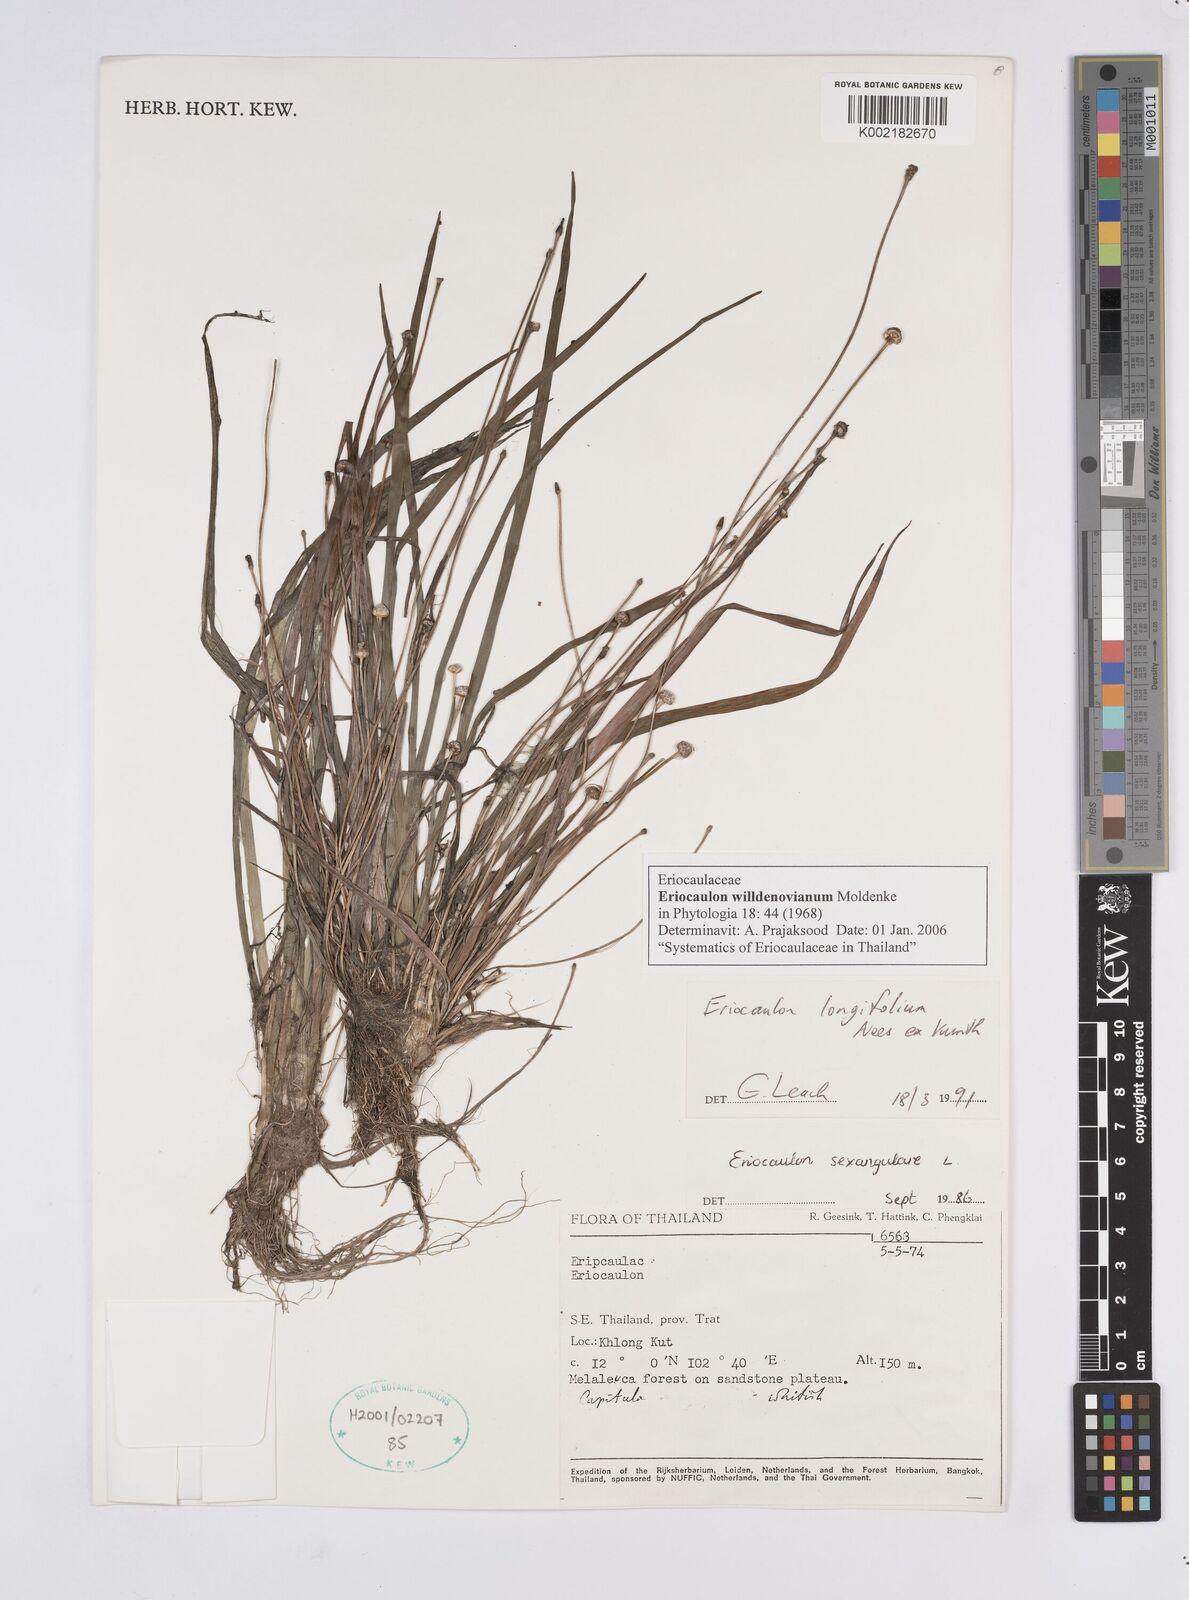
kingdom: Plantae
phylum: Tracheophyta
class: Liliopsida
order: Poales
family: Eriocaulaceae
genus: Eriocaulon
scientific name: Eriocaulon willdenovianum
